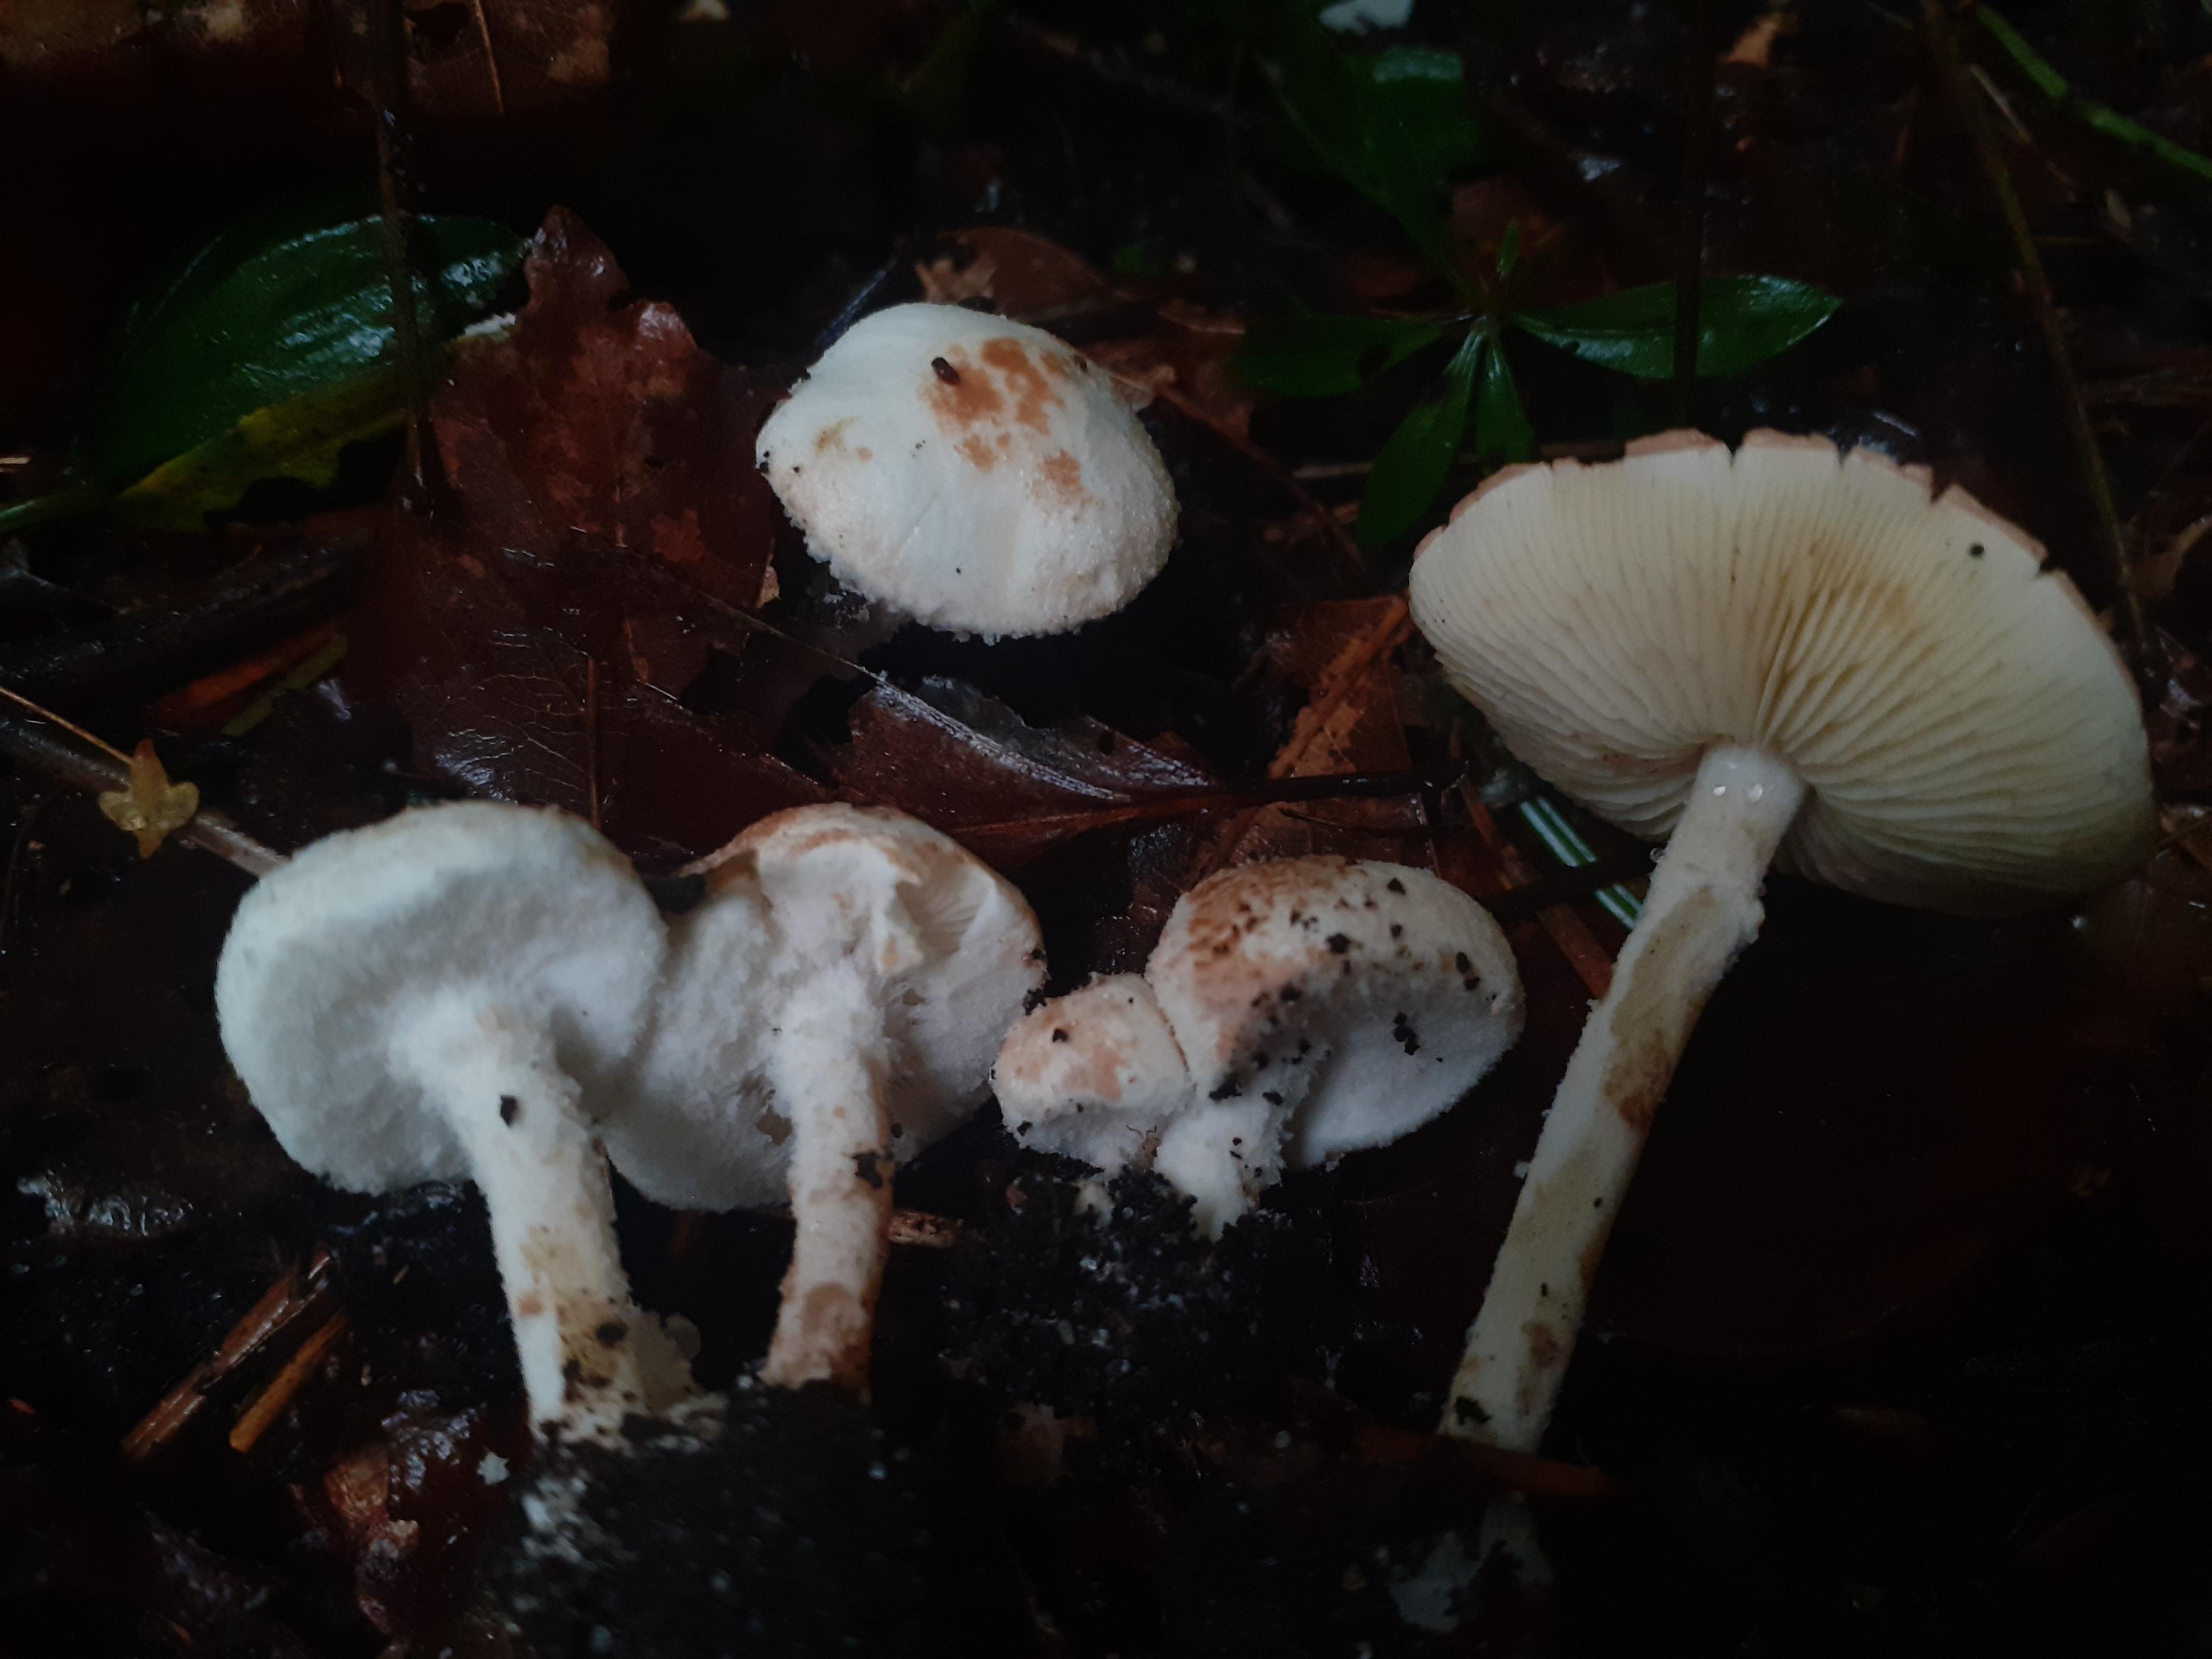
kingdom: Fungi
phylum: Basidiomycota
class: Agaricomycetes
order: Agaricales
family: Agaricaceae
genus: Cystolepiota
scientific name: Cystolepiota hetieri
